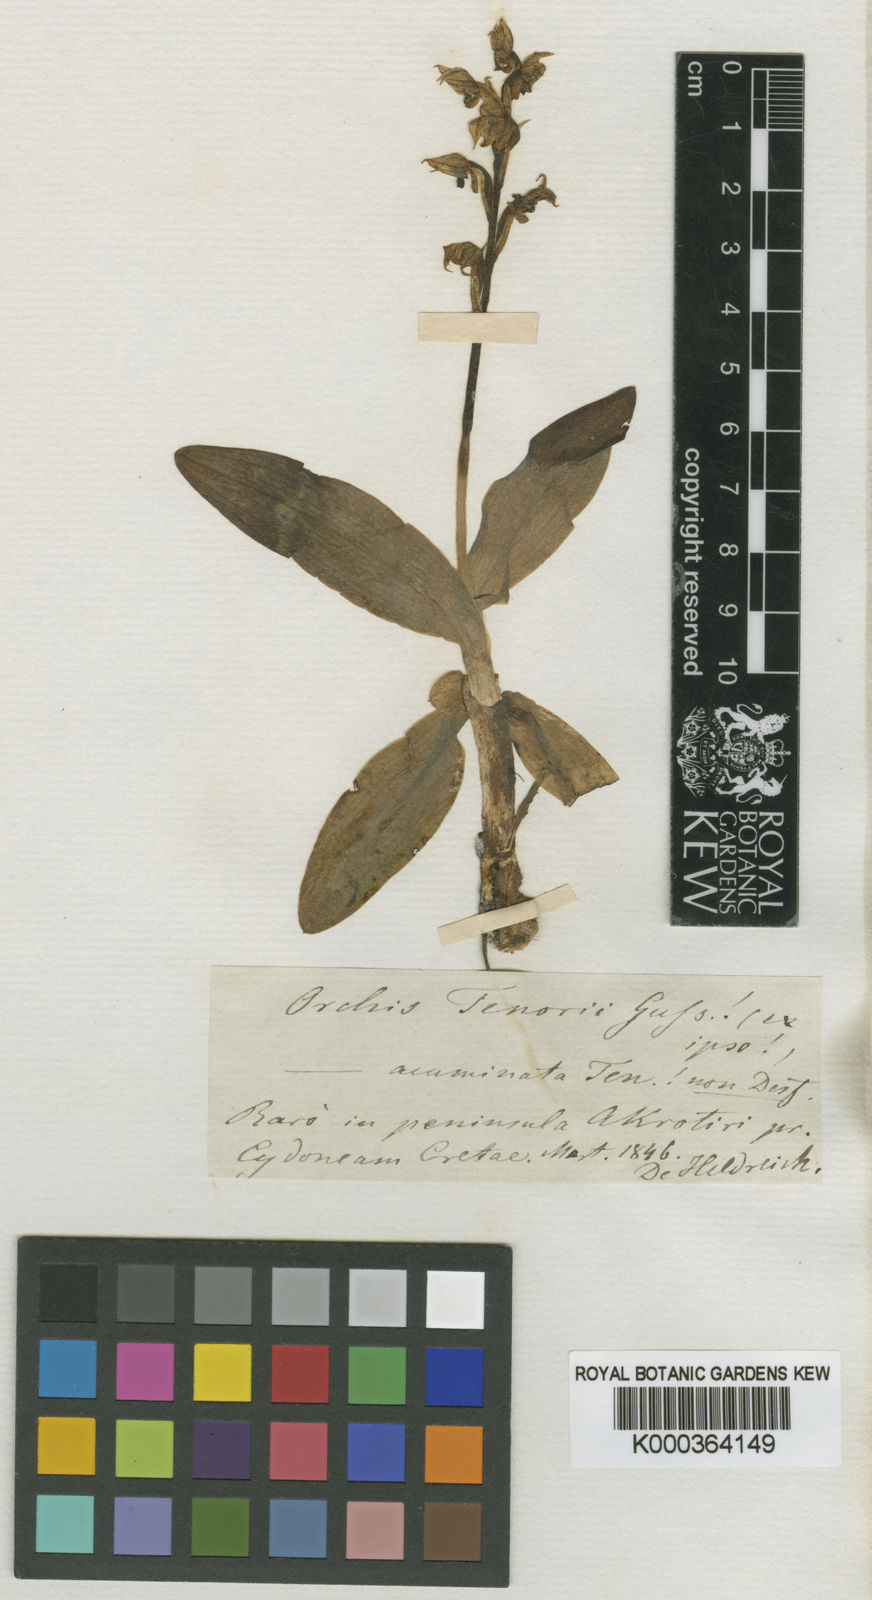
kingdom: Plantae
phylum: Tracheophyta
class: Liliopsida
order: Asparagales
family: Orchidaceae
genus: Neotinea
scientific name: Neotinea lactea
